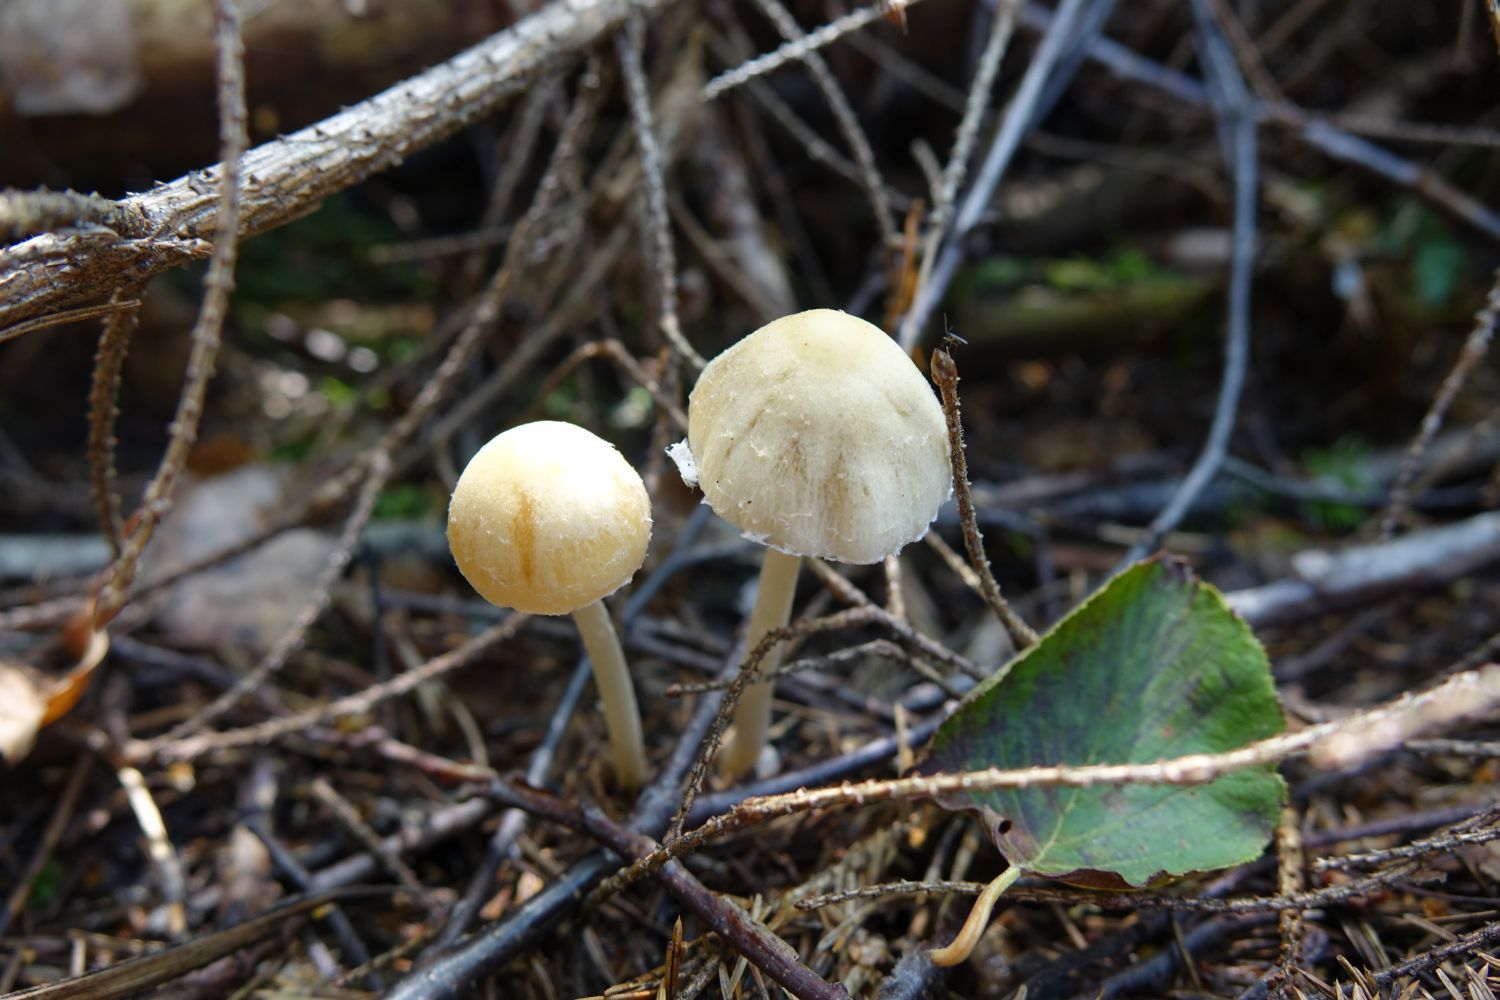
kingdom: Fungi
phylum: Basidiomycota
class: Agaricomycetes
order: Agaricales
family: Psathyrellaceae
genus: Candolleomyces
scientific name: Candolleomyces candolleanus
